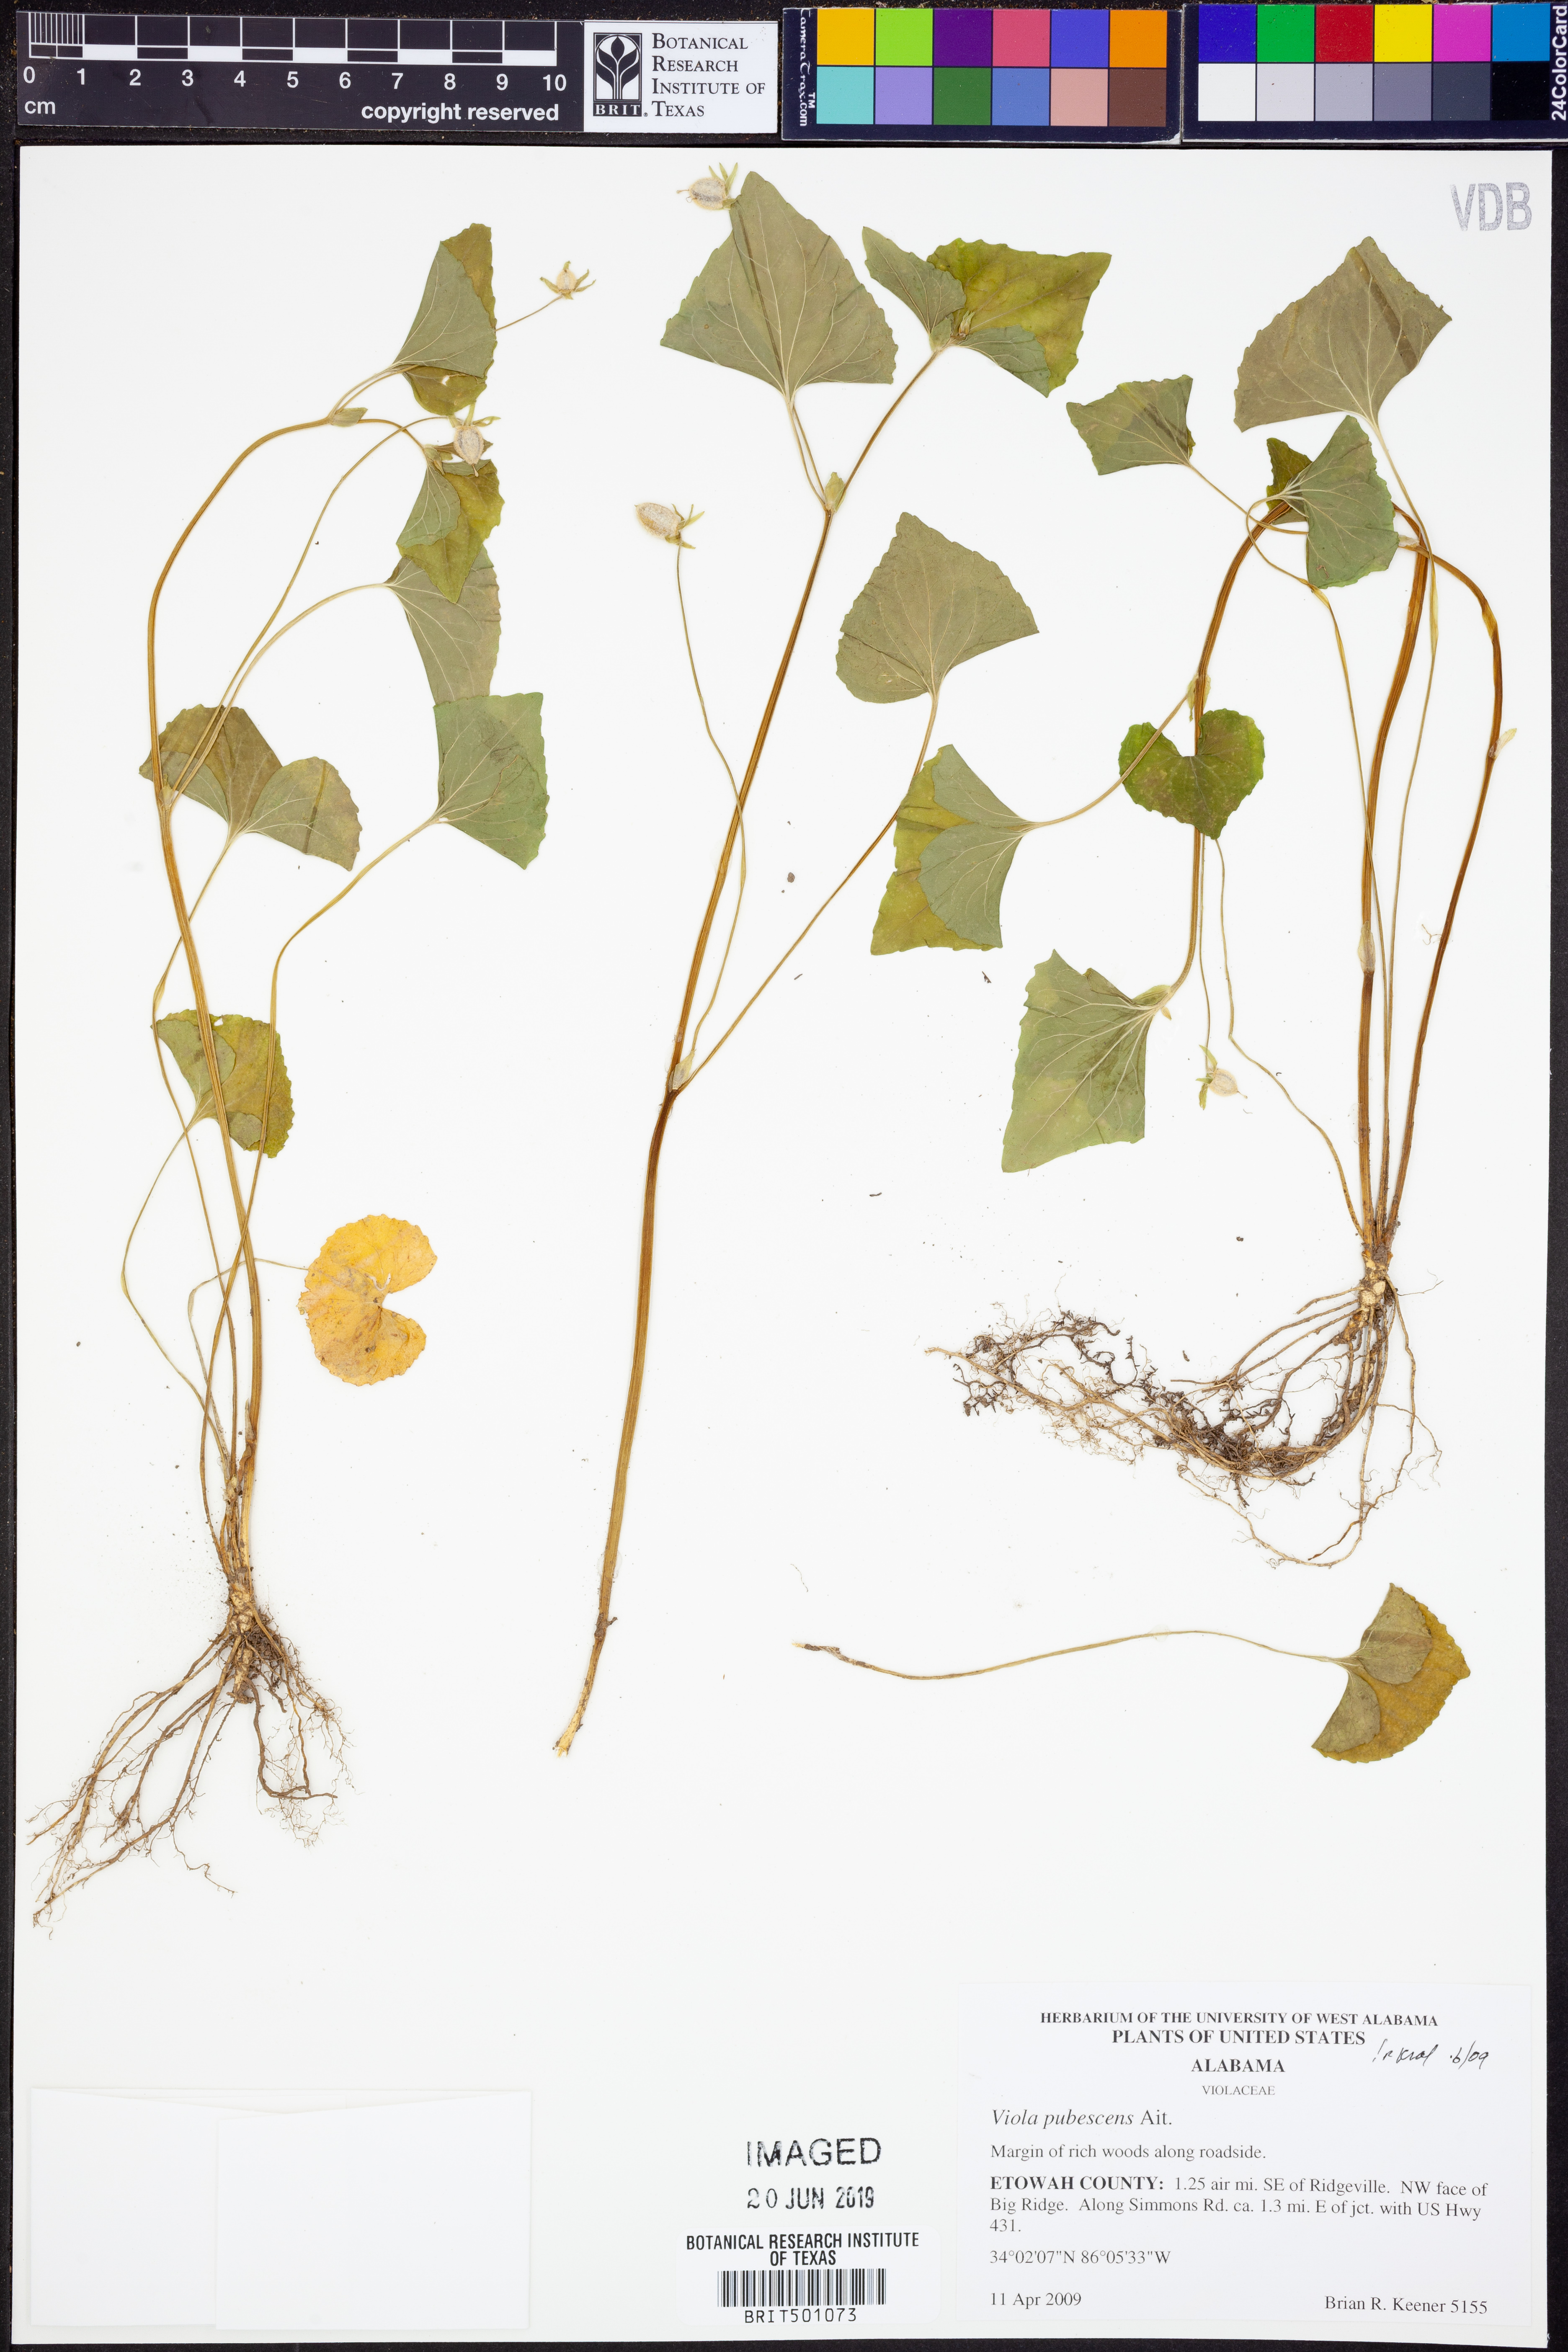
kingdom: Plantae
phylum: Tracheophyta
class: Magnoliopsida
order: Malpighiales
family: Violaceae
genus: Viola
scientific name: Viola pubescens
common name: Yellow forest violet
